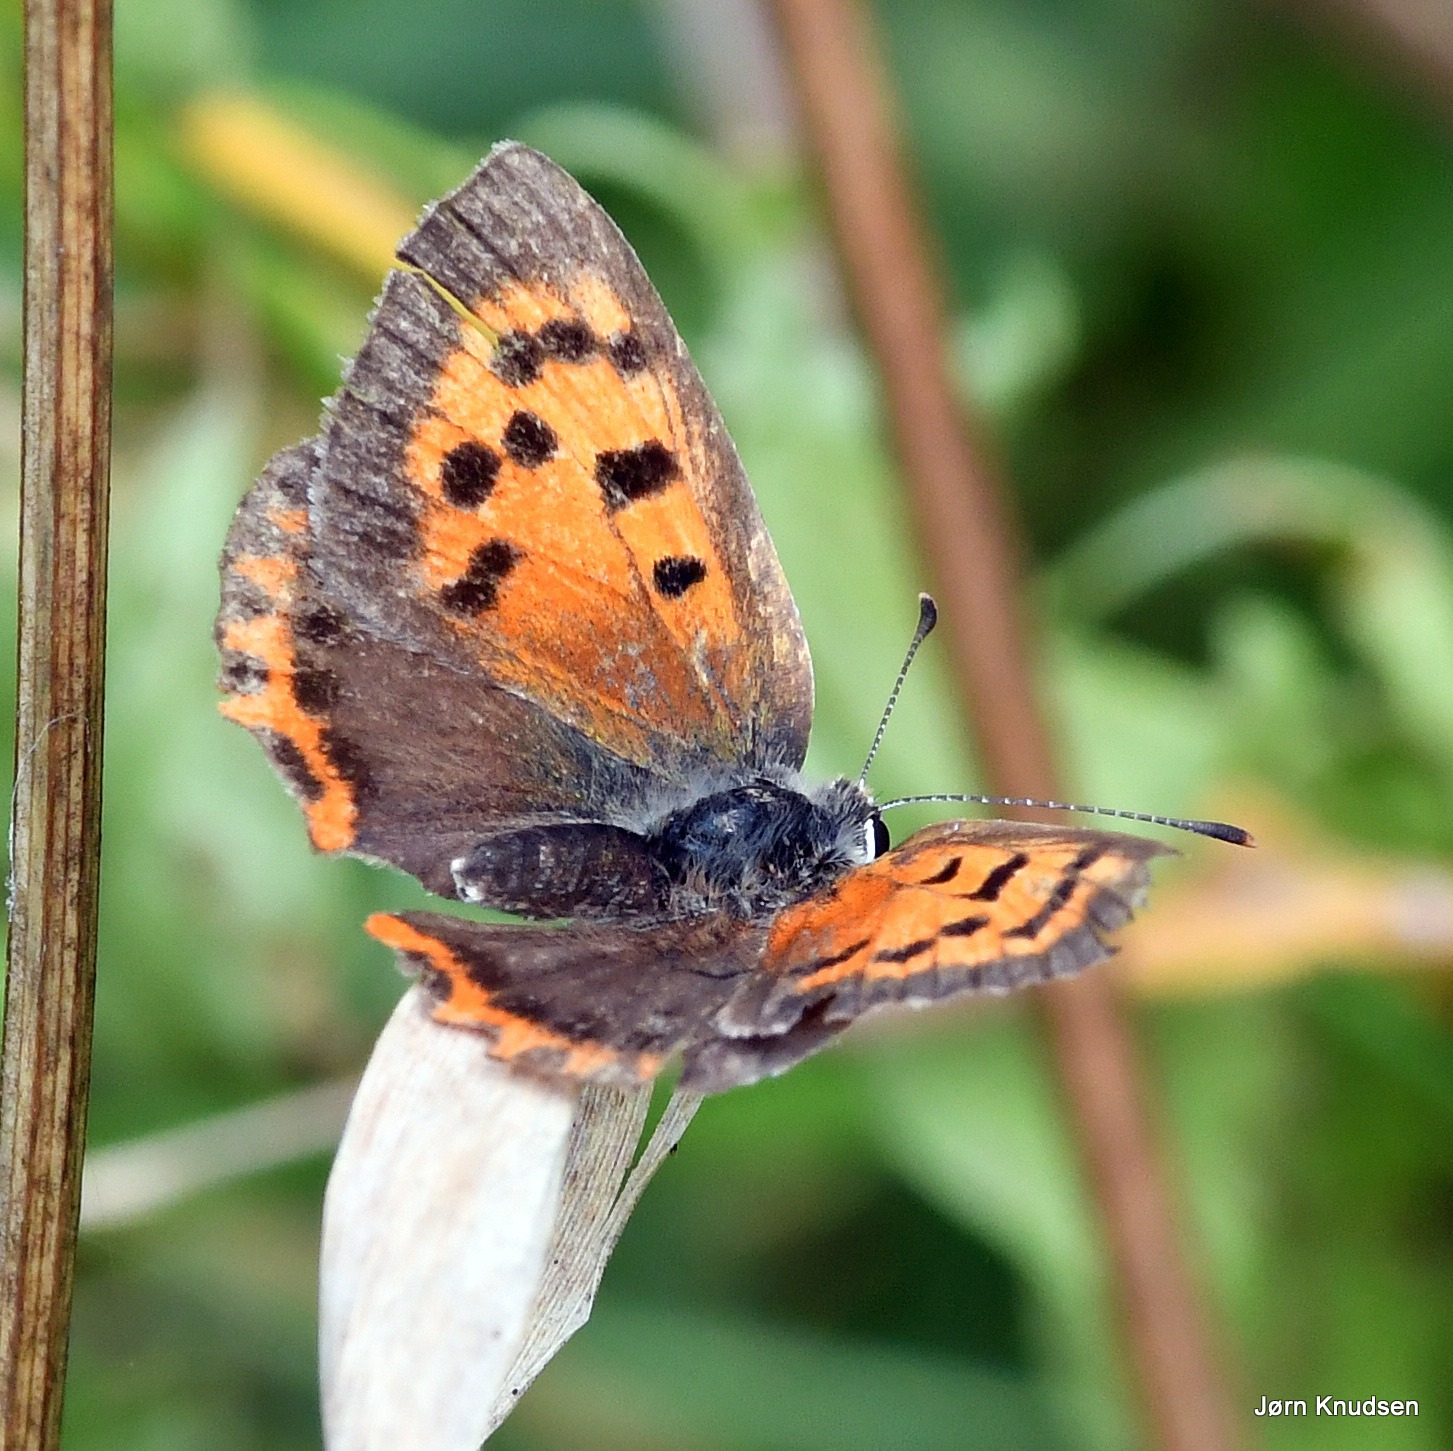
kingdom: Animalia
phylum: Arthropoda
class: Insecta
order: Lepidoptera
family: Lycaenidae
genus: Lycaena
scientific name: Lycaena phlaeas
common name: Lille ildfugl
